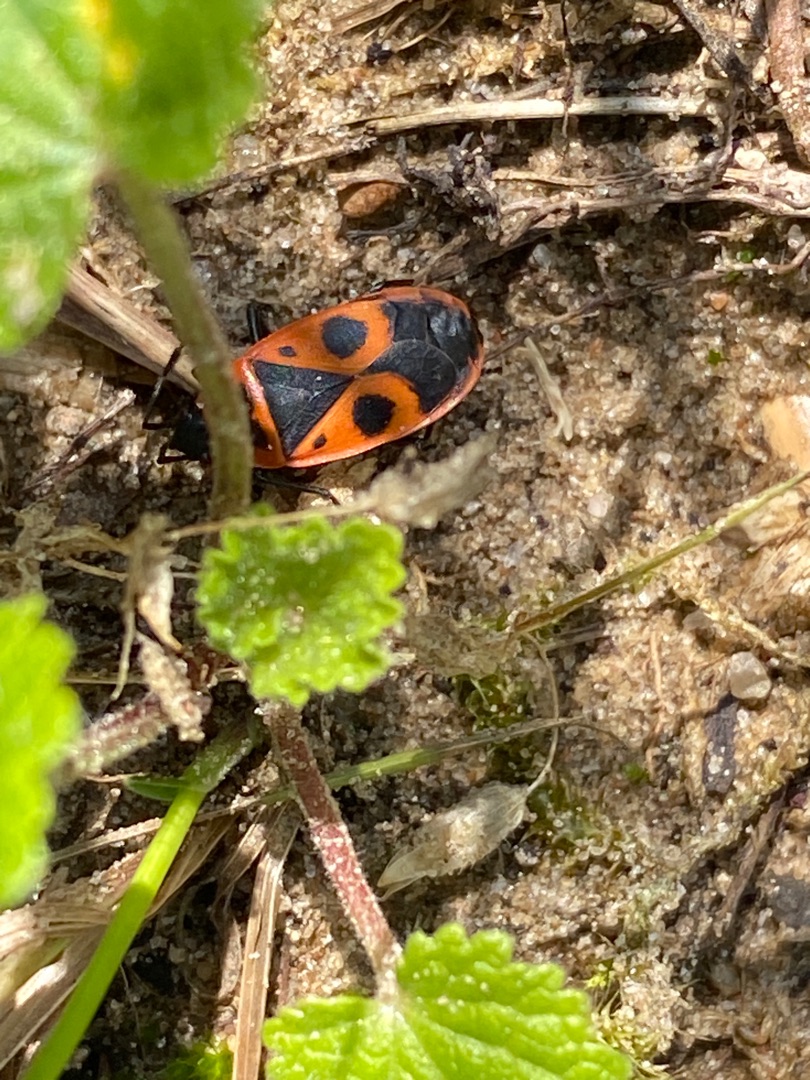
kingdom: Animalia
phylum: Arthropoda
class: Insecta
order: Hemiptera
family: Pyrrhocoridae
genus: Pyrrhocoris
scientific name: Pyrrhocoris apterus
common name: Ildtæge
